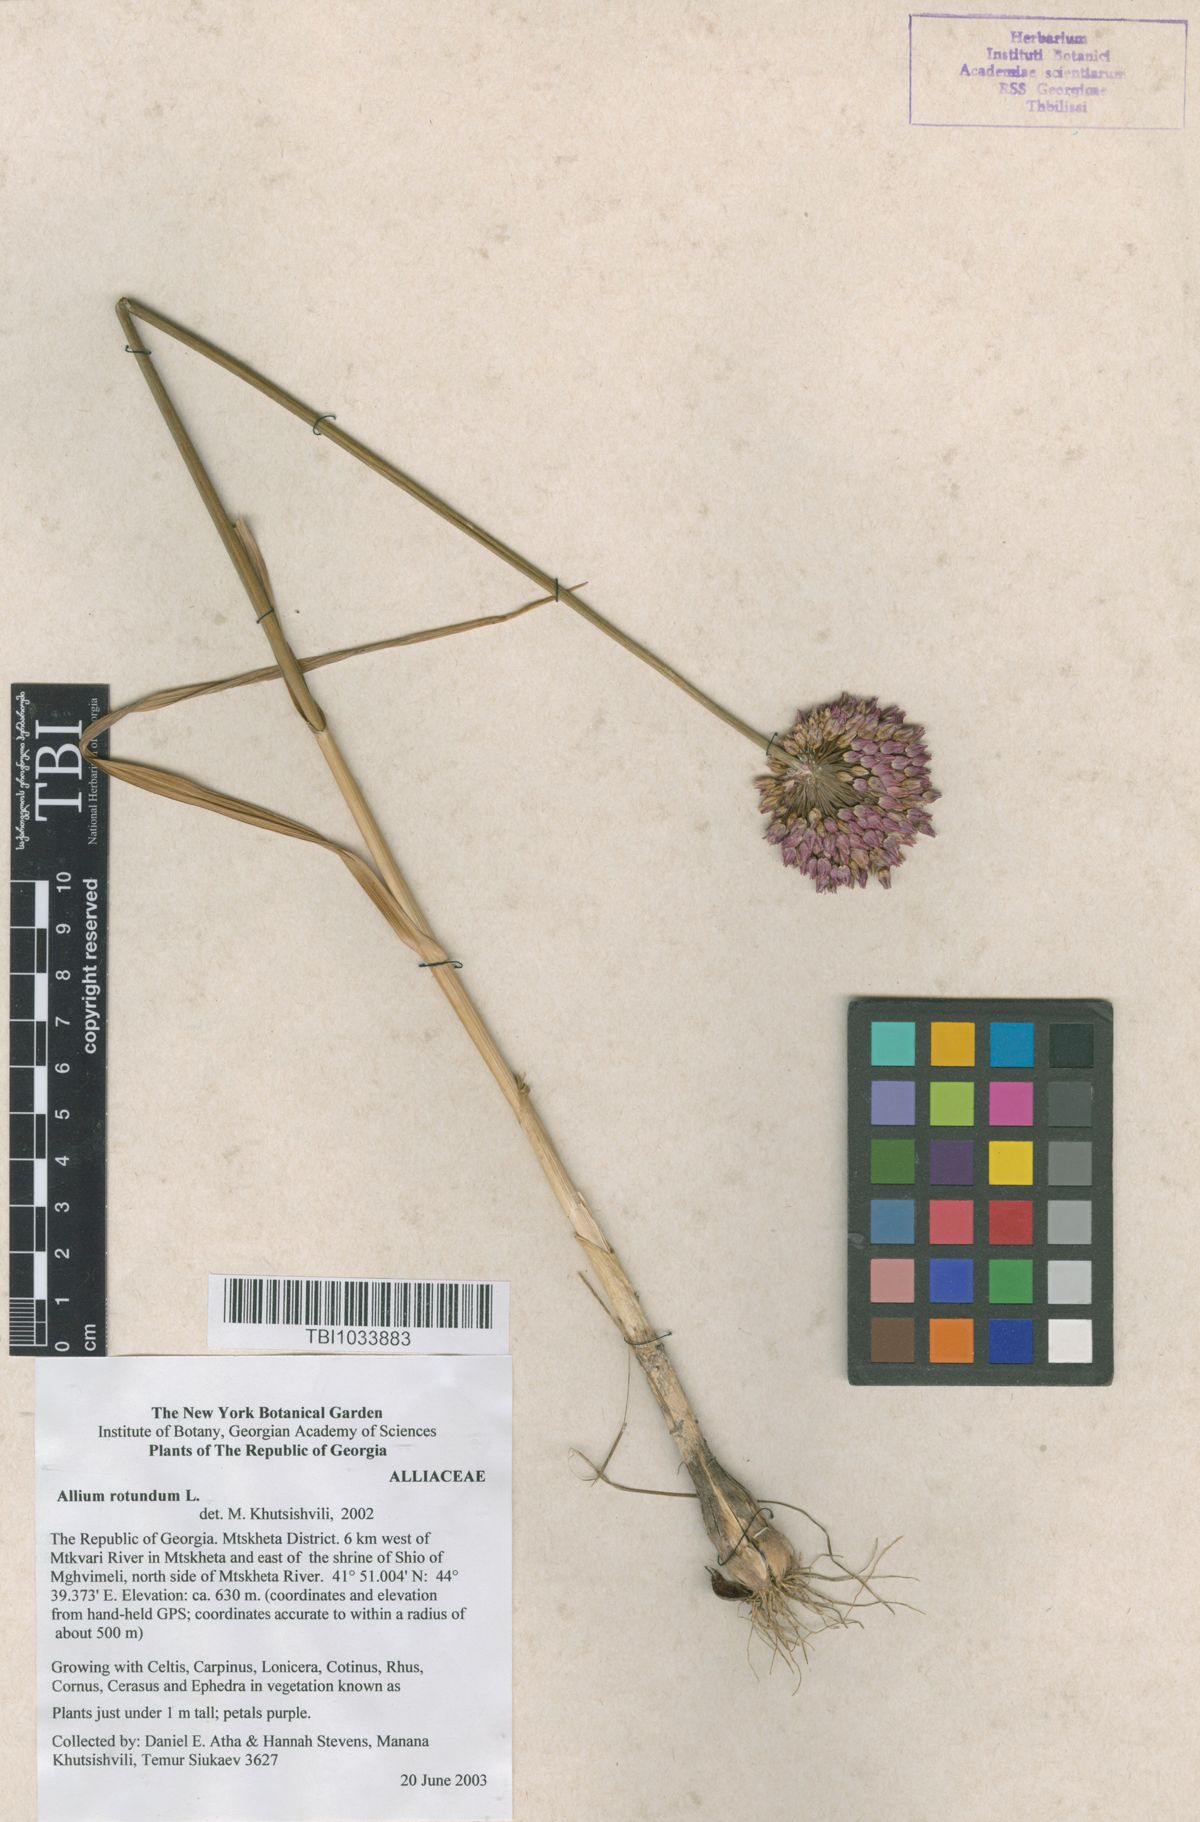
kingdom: Plantae
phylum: Tracheophyta
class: Liliopsida
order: Asparagales
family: Amaryllidaceae
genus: Allium
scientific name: Allium rotundum
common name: Sand leek
